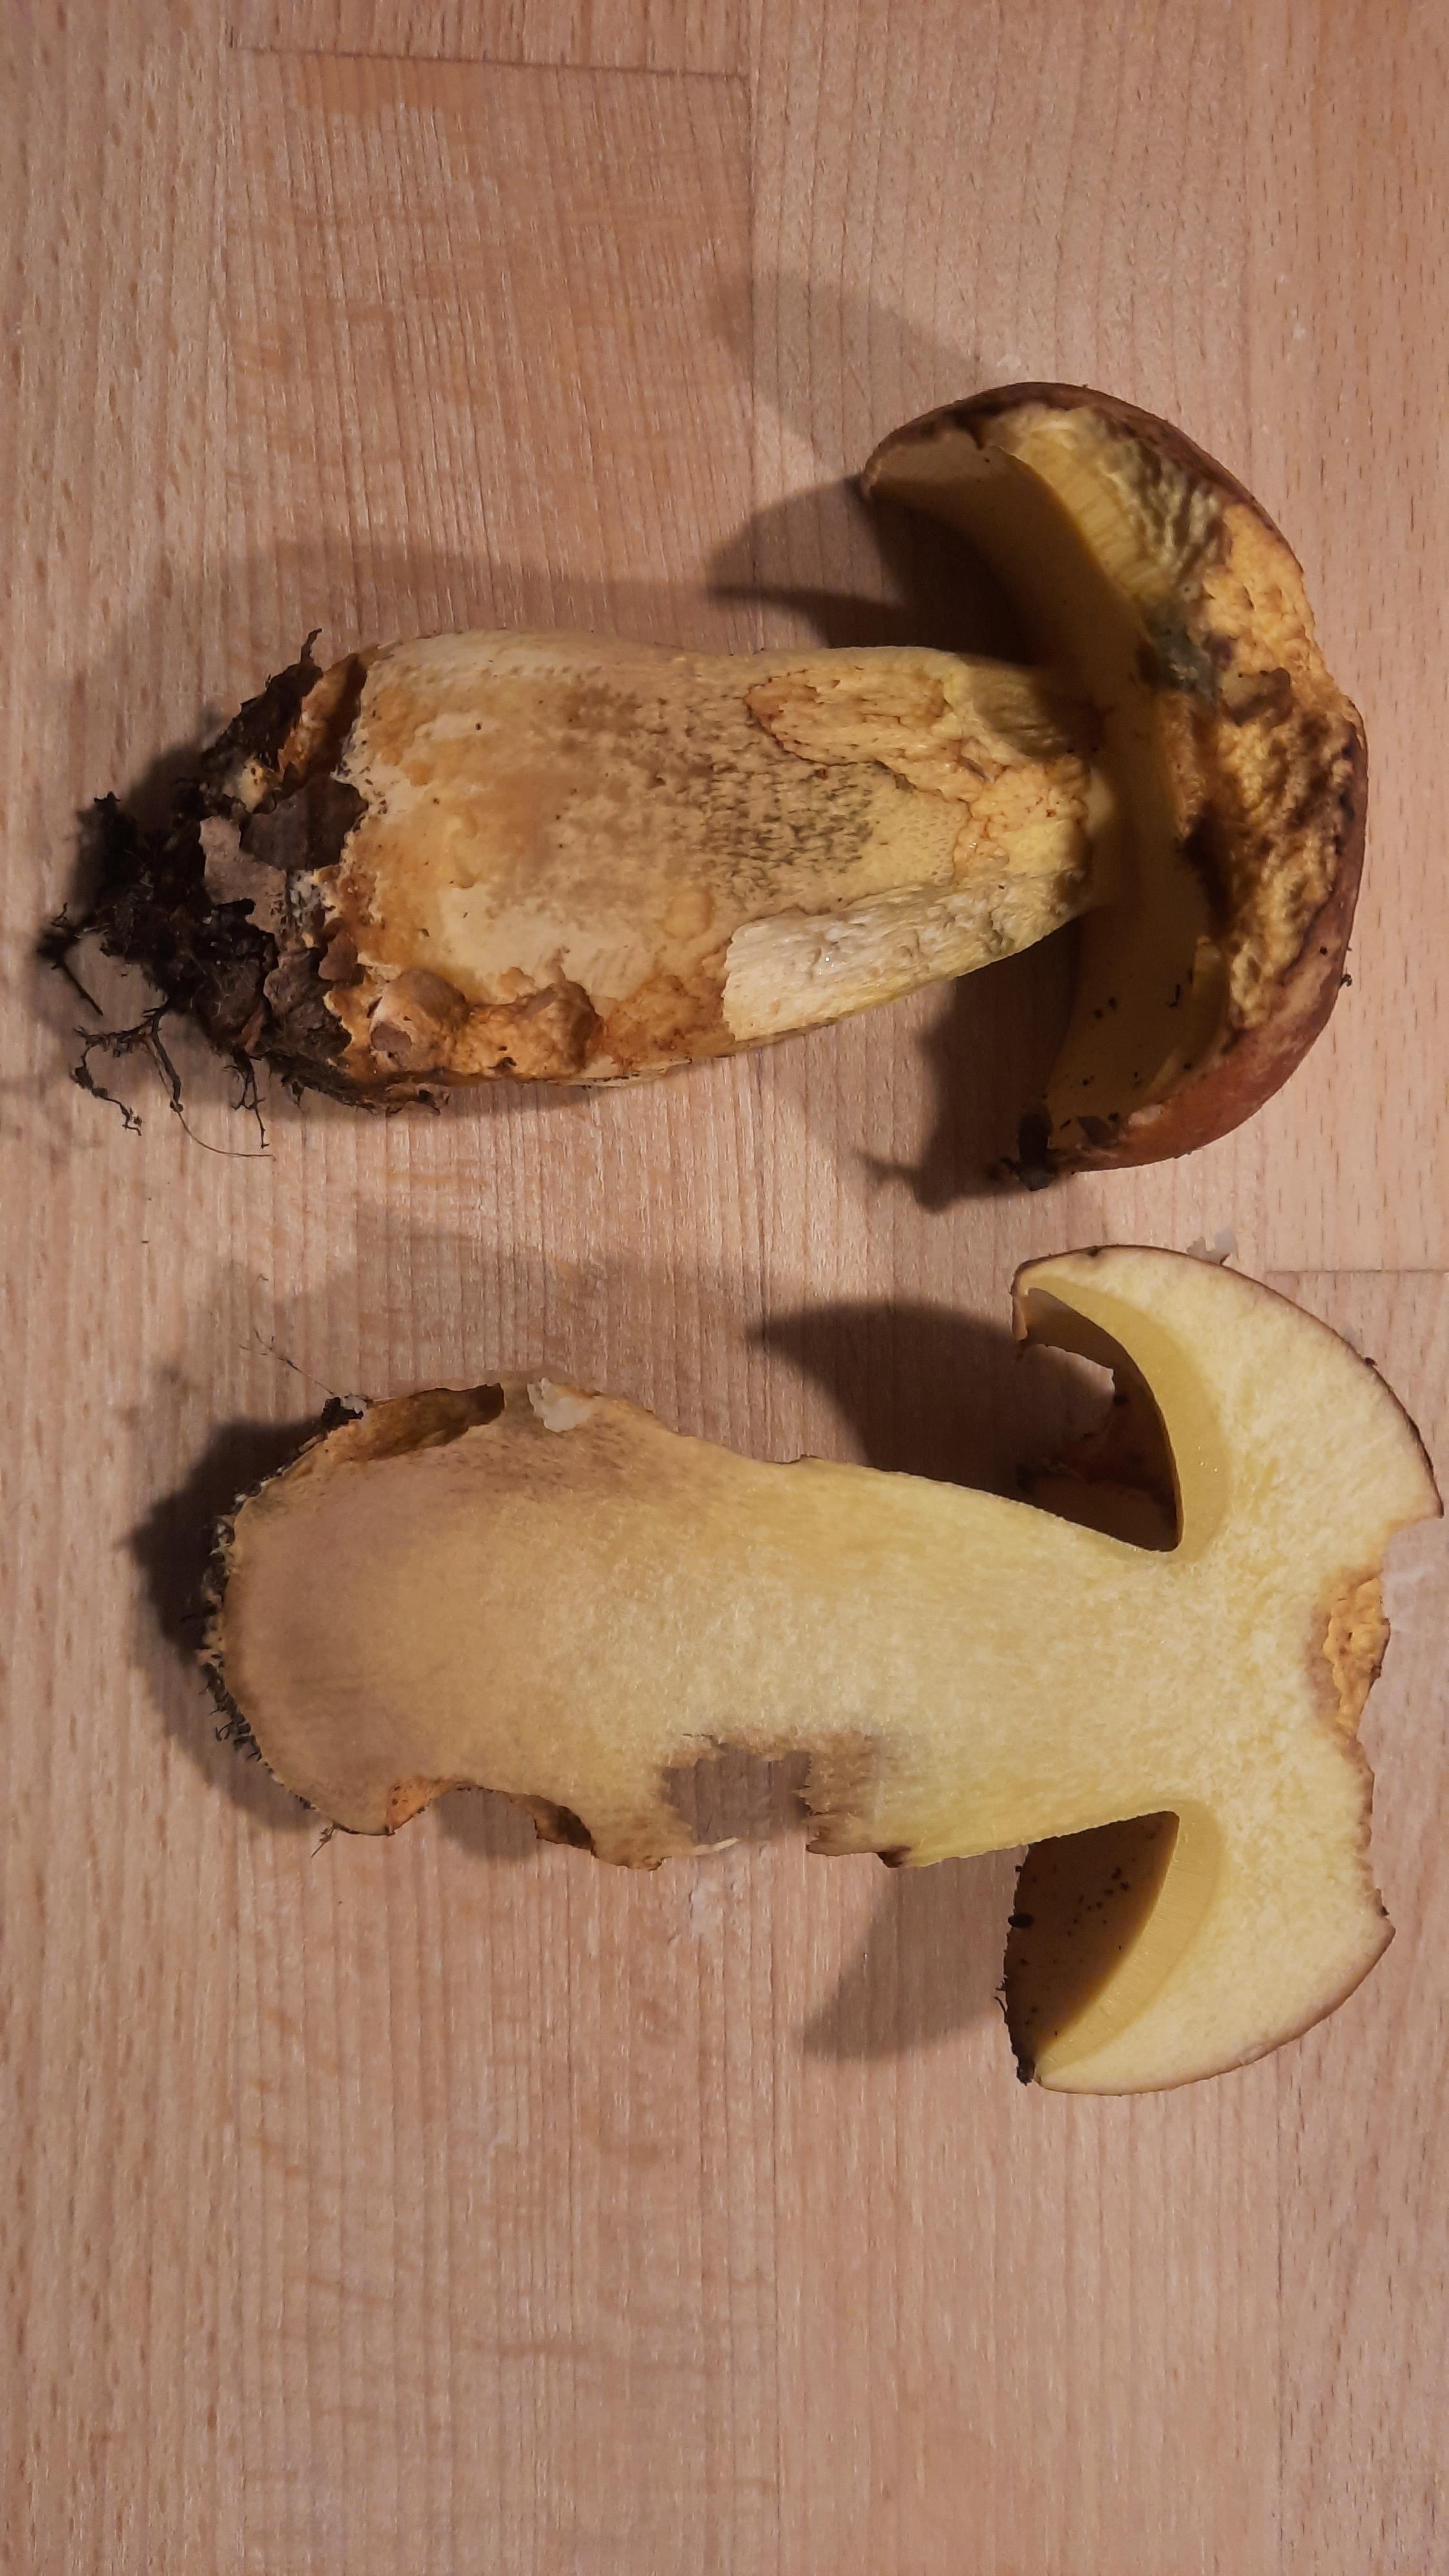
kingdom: Fungi
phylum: Basidiomycota
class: Agaricomycetes
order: Boletales
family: Boletaceae
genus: Butyriboletus
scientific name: Butyriboletus appendiculatus
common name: tenstokket rørhat
